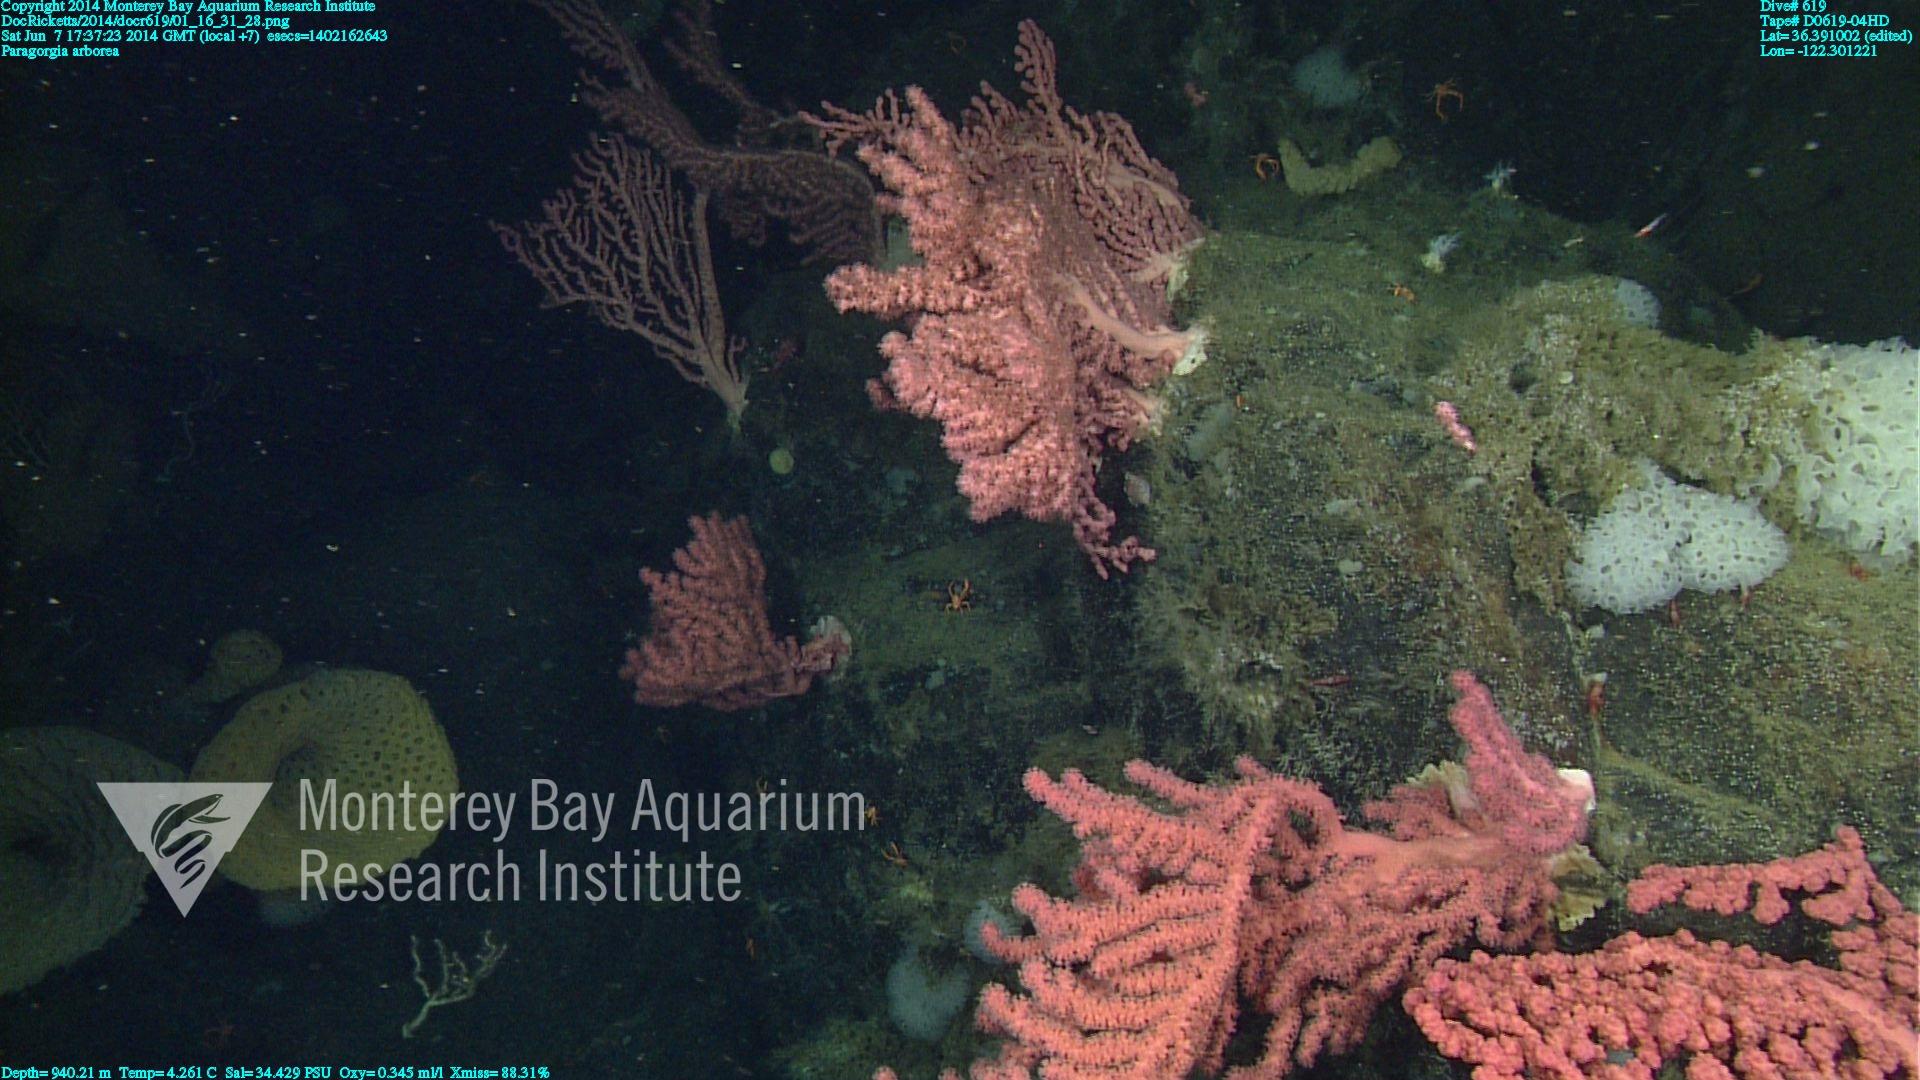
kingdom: Animalia
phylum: Cnidaria
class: Anthozoa
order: Scleralcyonacea
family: Coralliidae
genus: Paragorgia
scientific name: Paragorgia arborea
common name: Bubble gum coral
